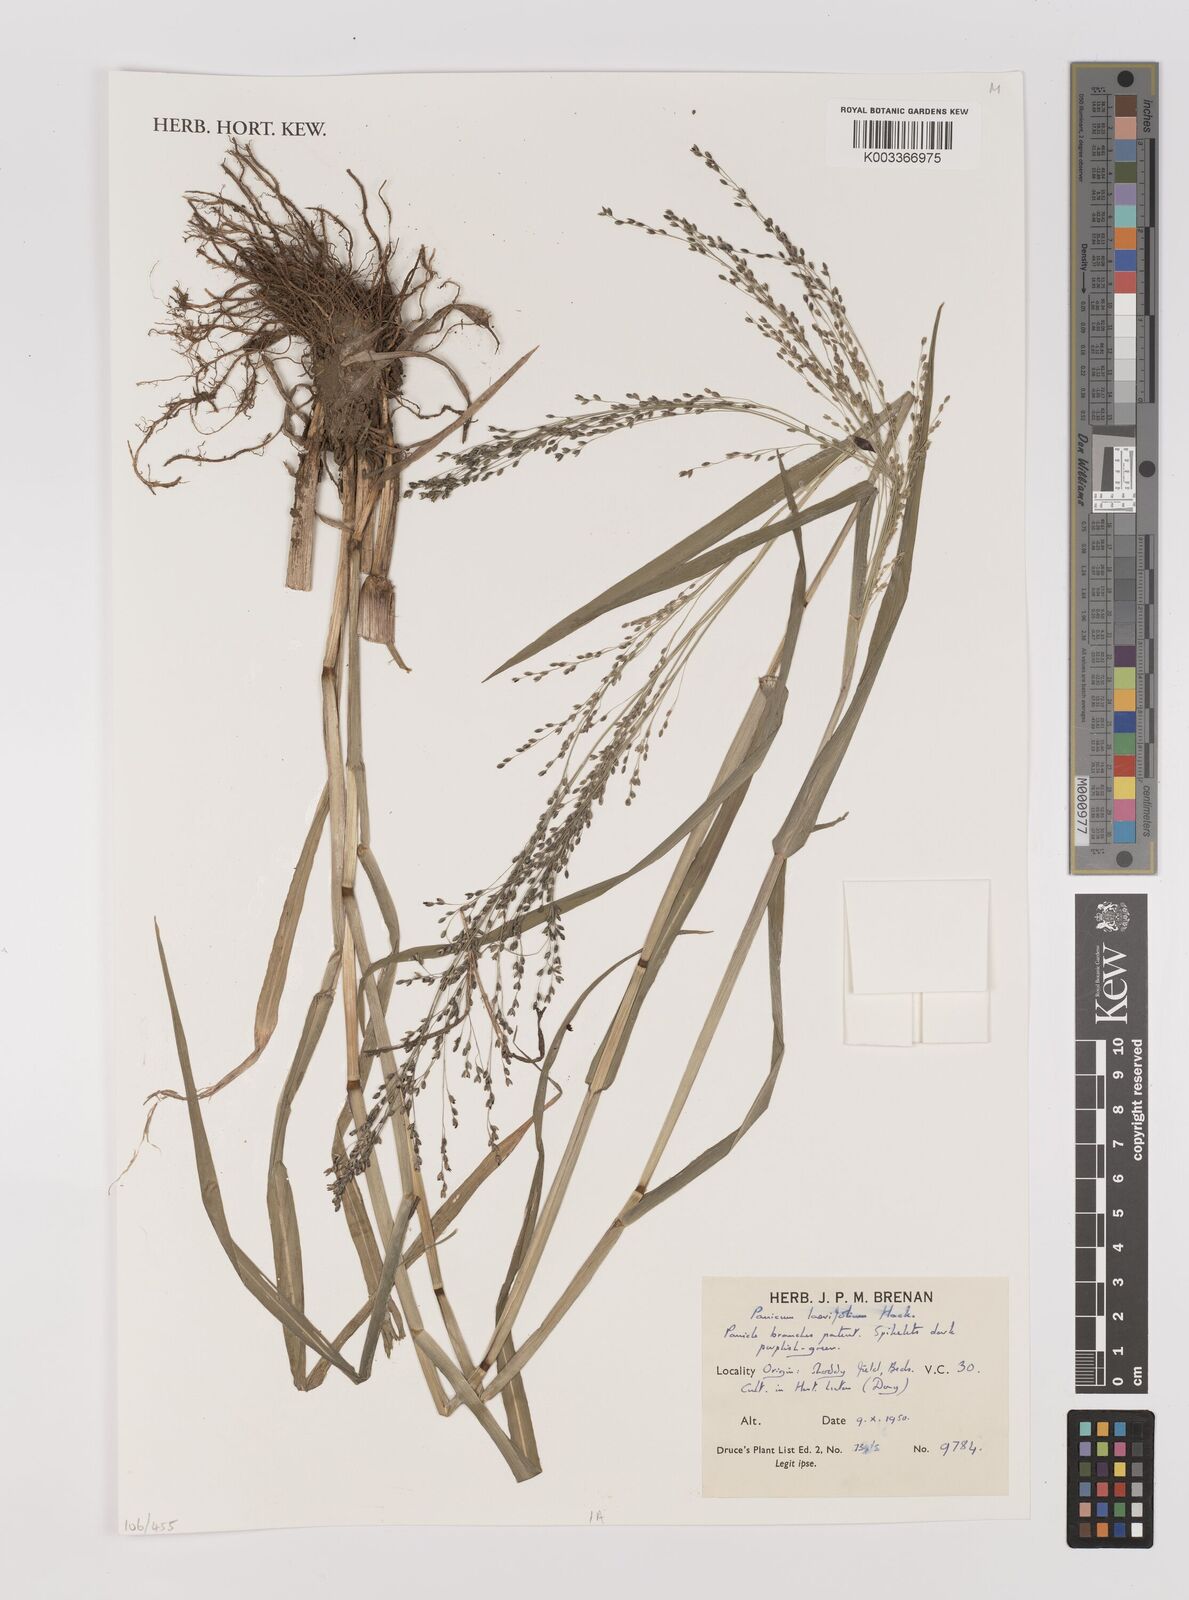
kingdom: Plantae
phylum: Tracheophyta
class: Liliopsida
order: Poales
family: Poaceae
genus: Panicum
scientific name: Panicum schinzii
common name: Sweet grass
